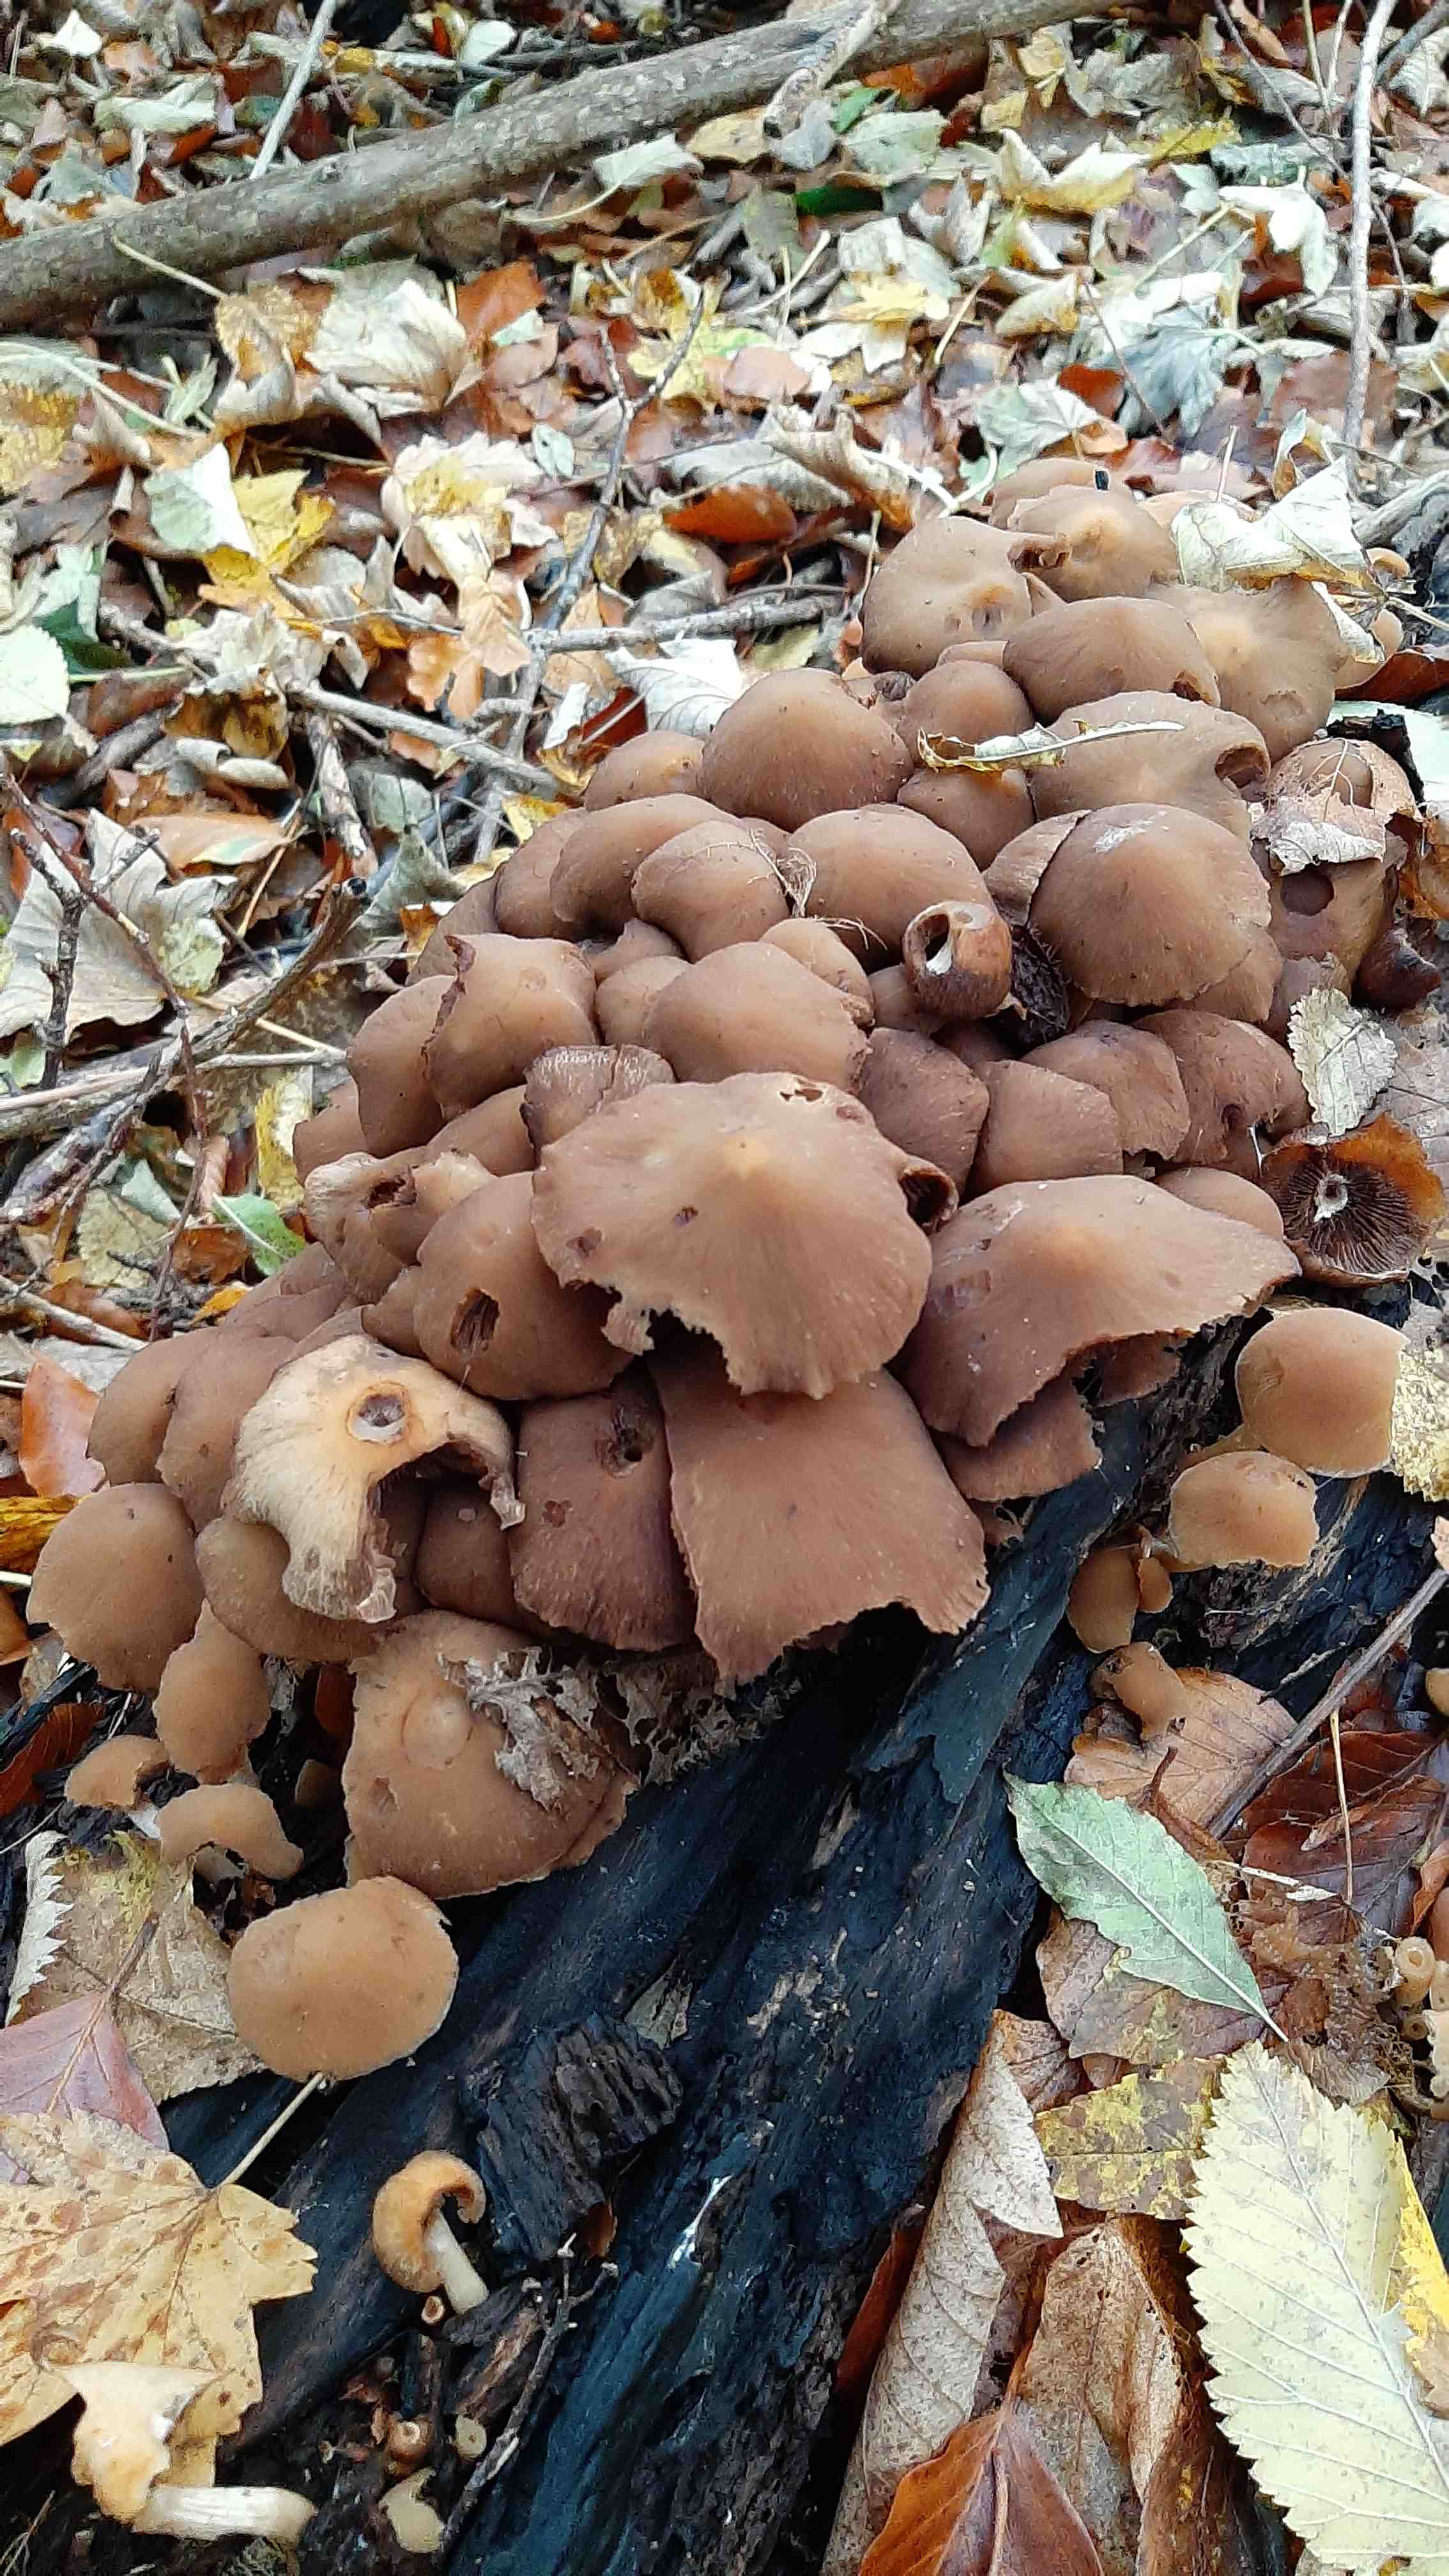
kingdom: Fungi
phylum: Basidiomycota
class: Agaricomycetes
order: Agaricales
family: Psathyrellaceae
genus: Psathyrella
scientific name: Psathyrella piluliformis
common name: lysstokket mørkhat
